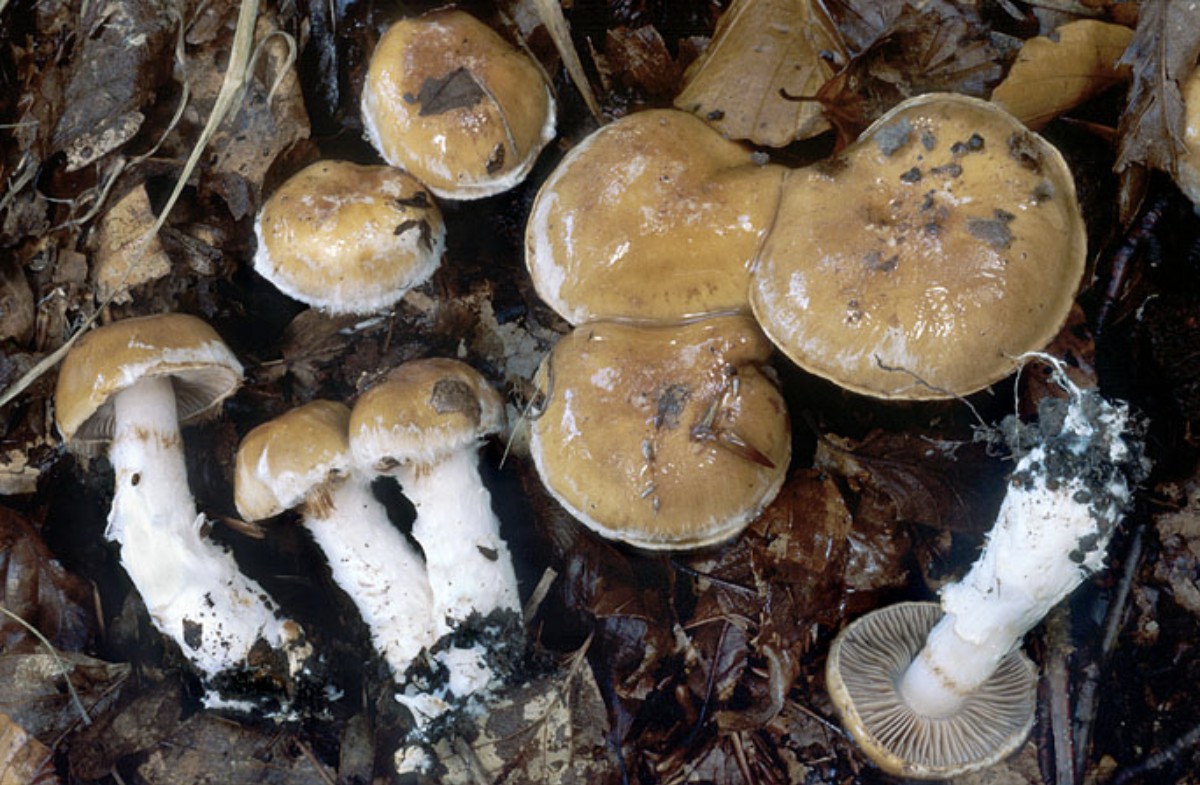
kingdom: Fungi
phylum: Basidiomycota
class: Agaricomycetes
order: Agaricales
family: Cortinariaceae
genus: Phlegmacium
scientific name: Phlegmacium obsoletum
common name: ulve-slørhat
